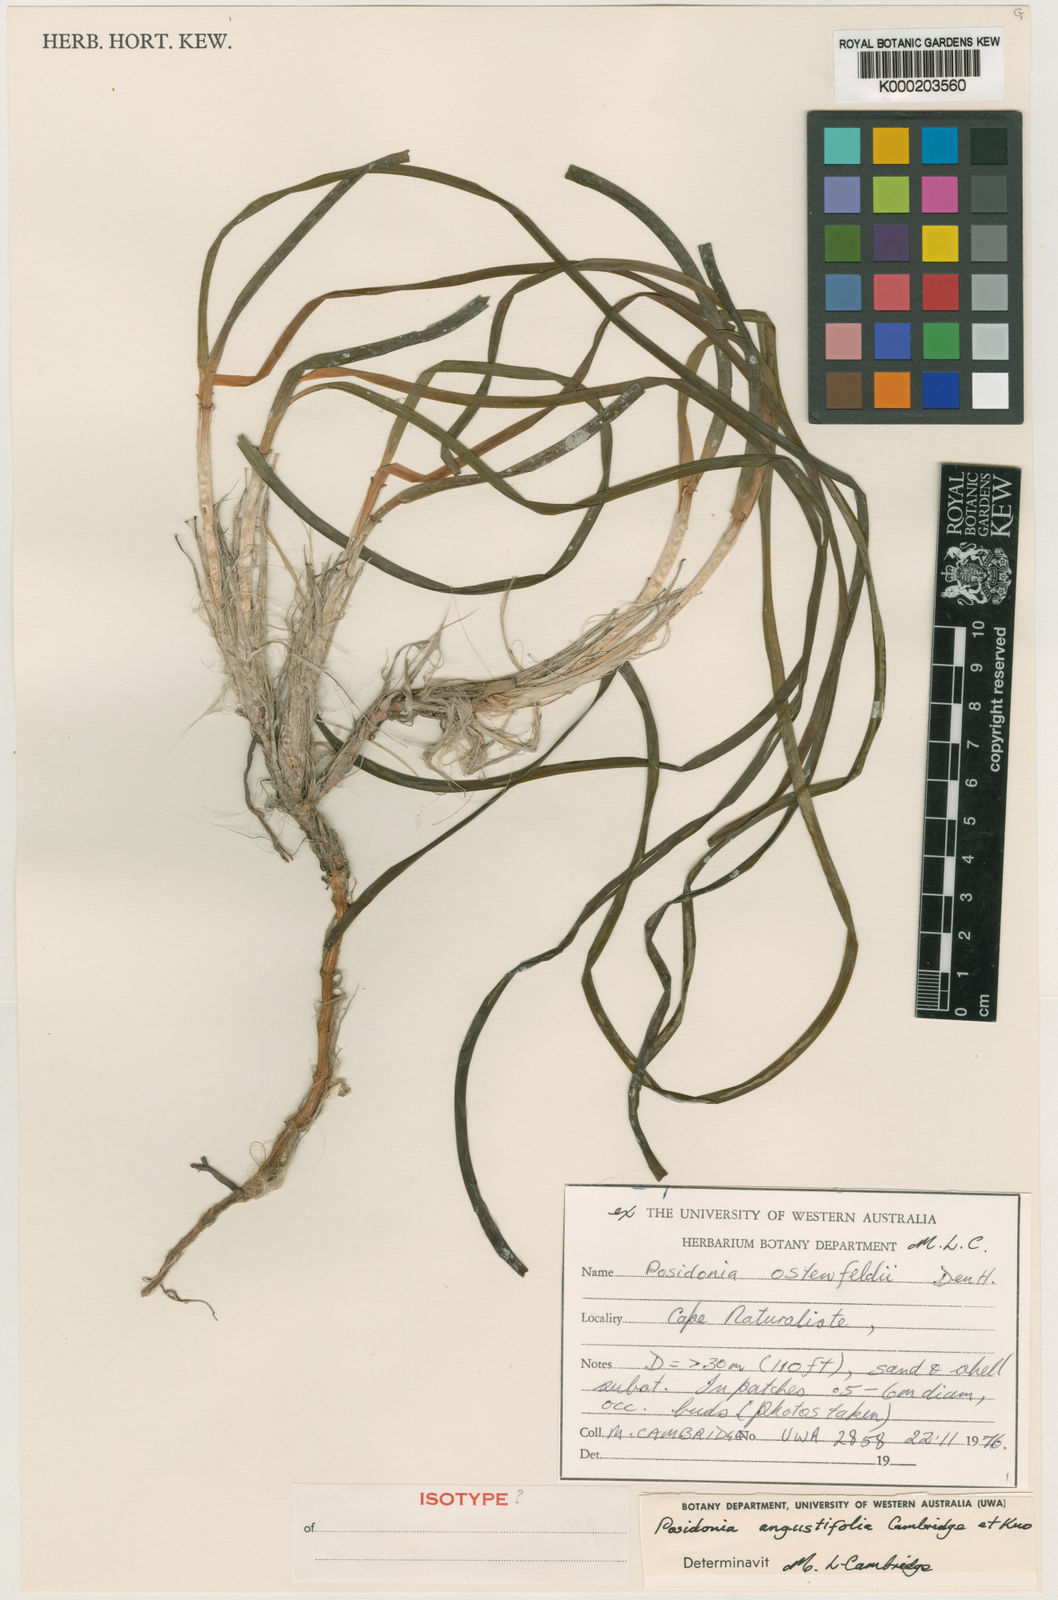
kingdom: Plantae
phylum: Tracheophyta
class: Liliopsida
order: Alismatales
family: Posidoniaceae
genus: Posidonia
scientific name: Posidonia angustifolia
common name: Species code: pg
